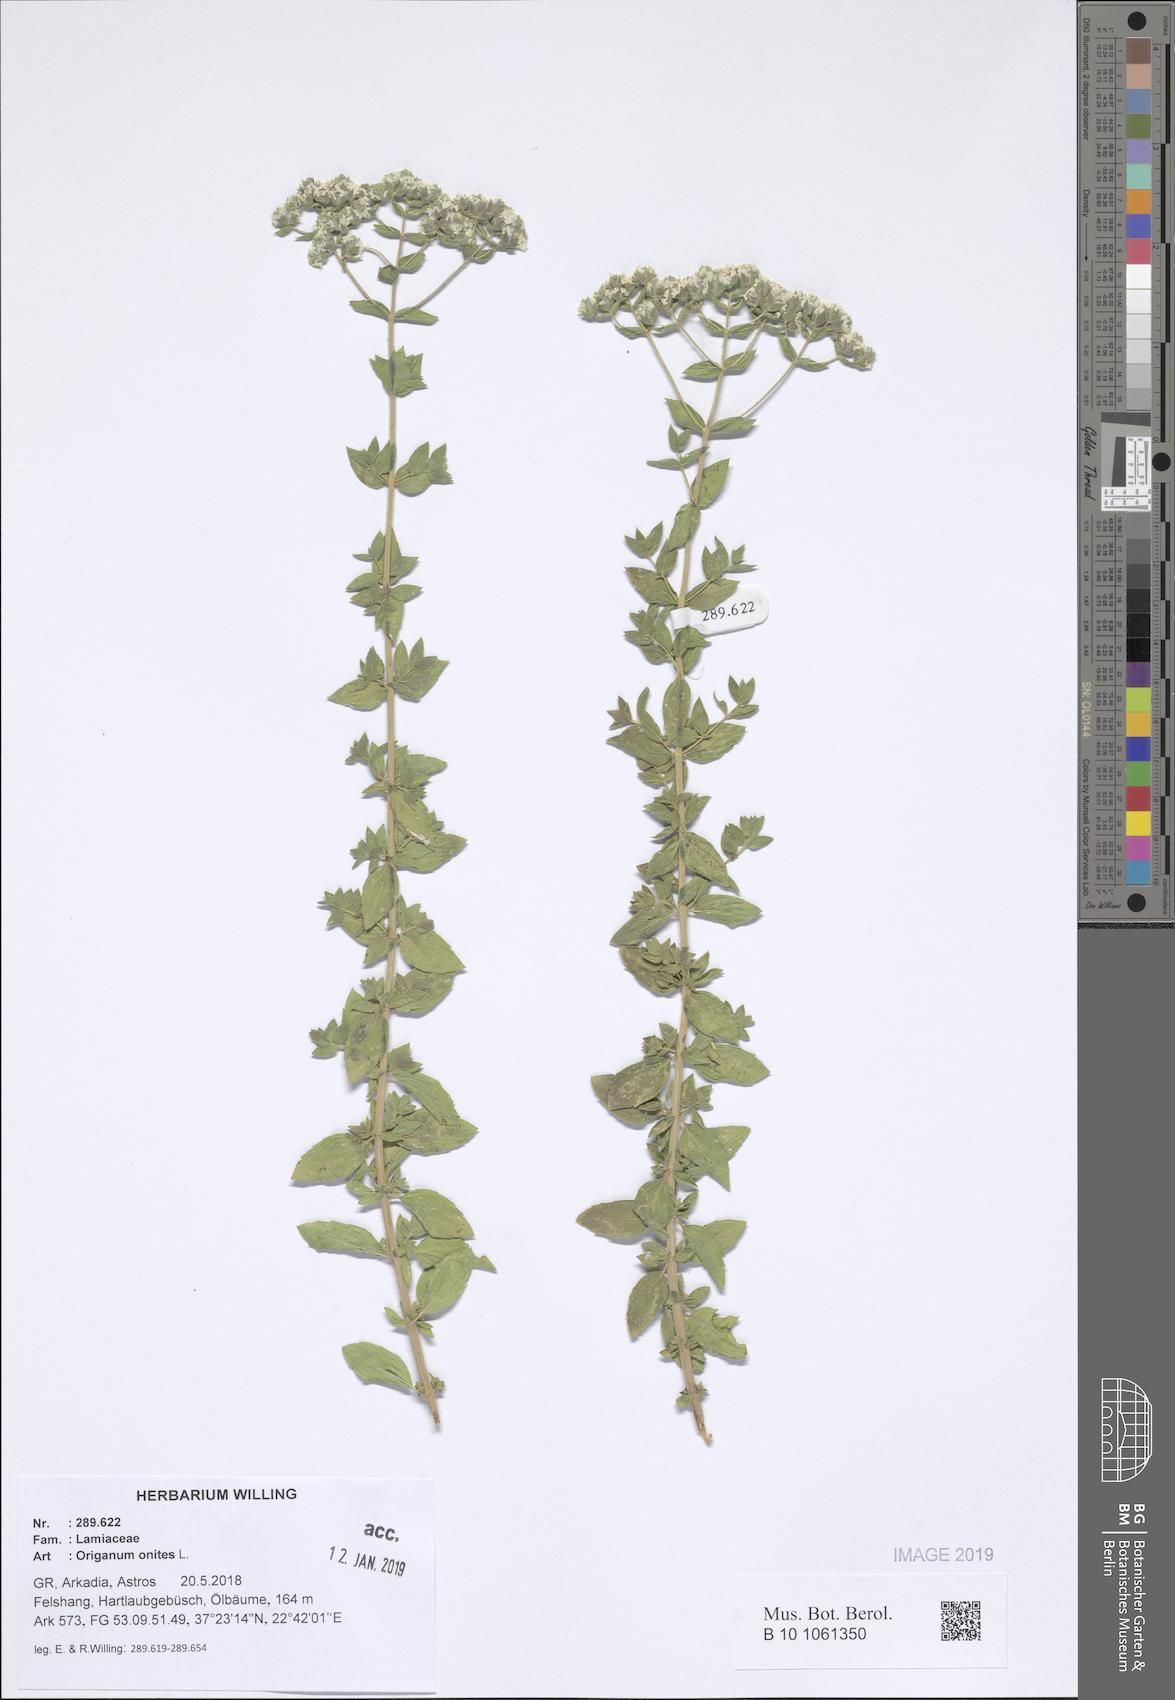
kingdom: Plantae
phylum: Tracheophyta
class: Magnoliopsida
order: Lamiales
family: Lamiaceae
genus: Origanum
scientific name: Origanum onites
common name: Turkish oregano
